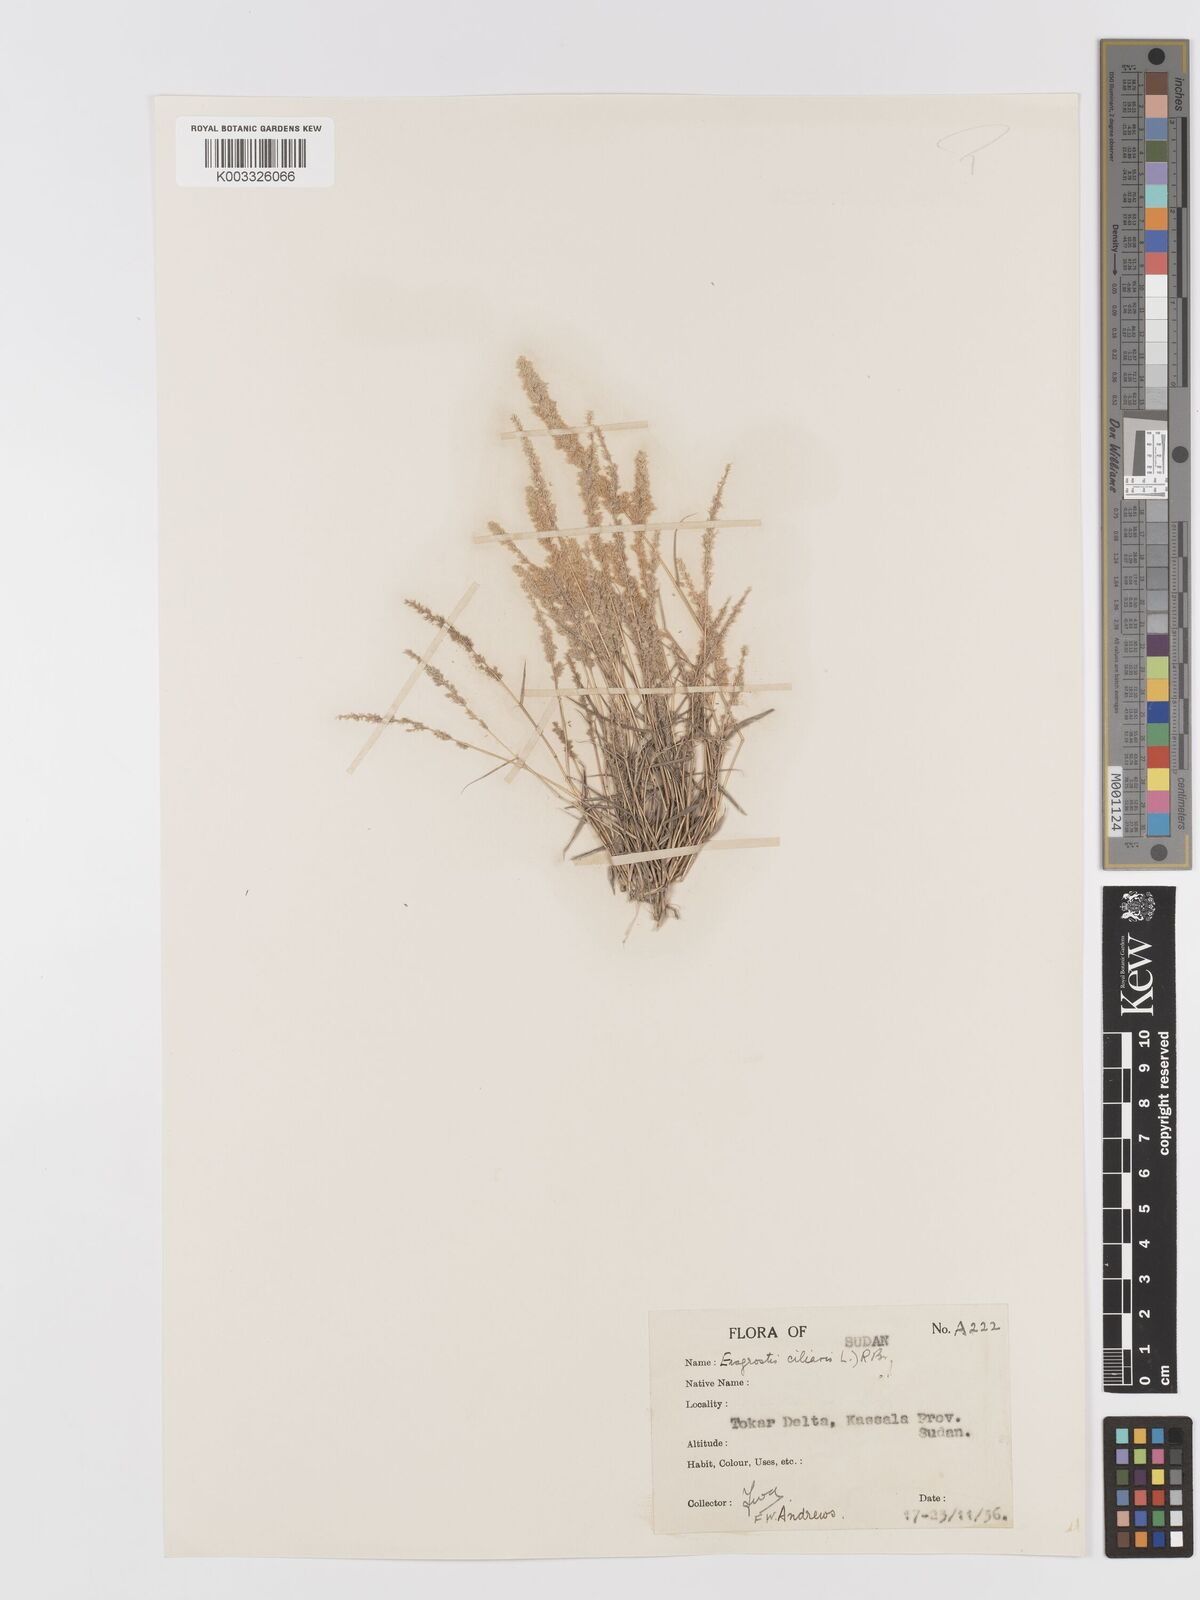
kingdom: Plantae
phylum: Tracheophyta
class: Liliopsida
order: Poales
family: Poaceae
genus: Eragrostis
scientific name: Eragrostis ciliaris
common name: Gophertail lovegrass
